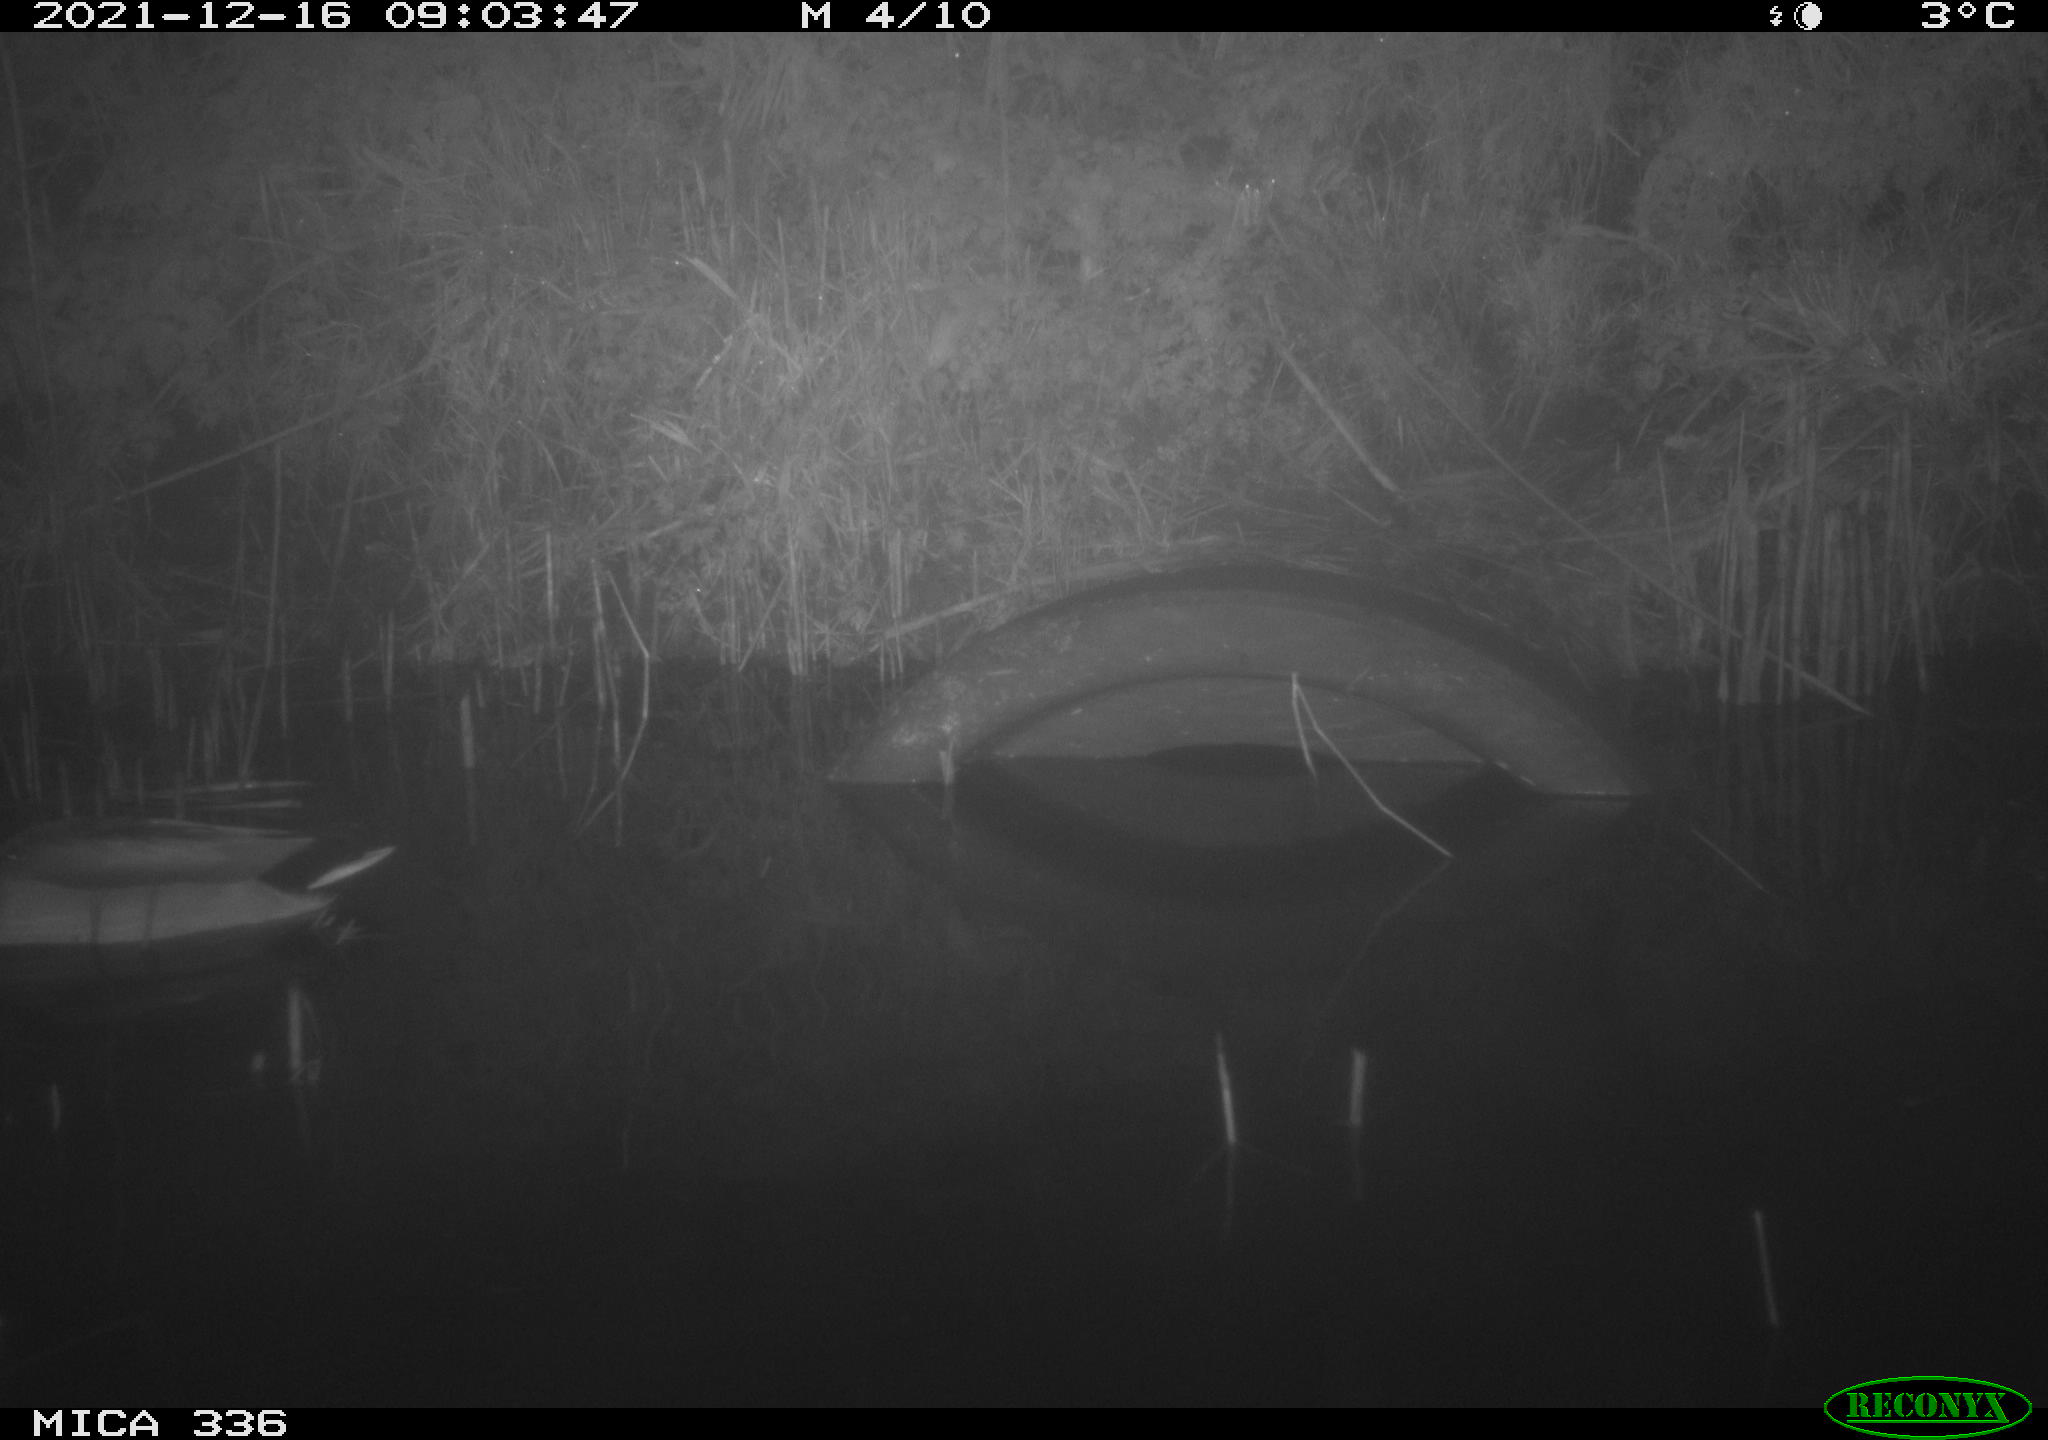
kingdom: Animalia
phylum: Chordata
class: Aves
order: Anseriformes
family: Anatidae
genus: Anas
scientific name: Anas platyrhynchos
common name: Mallard
